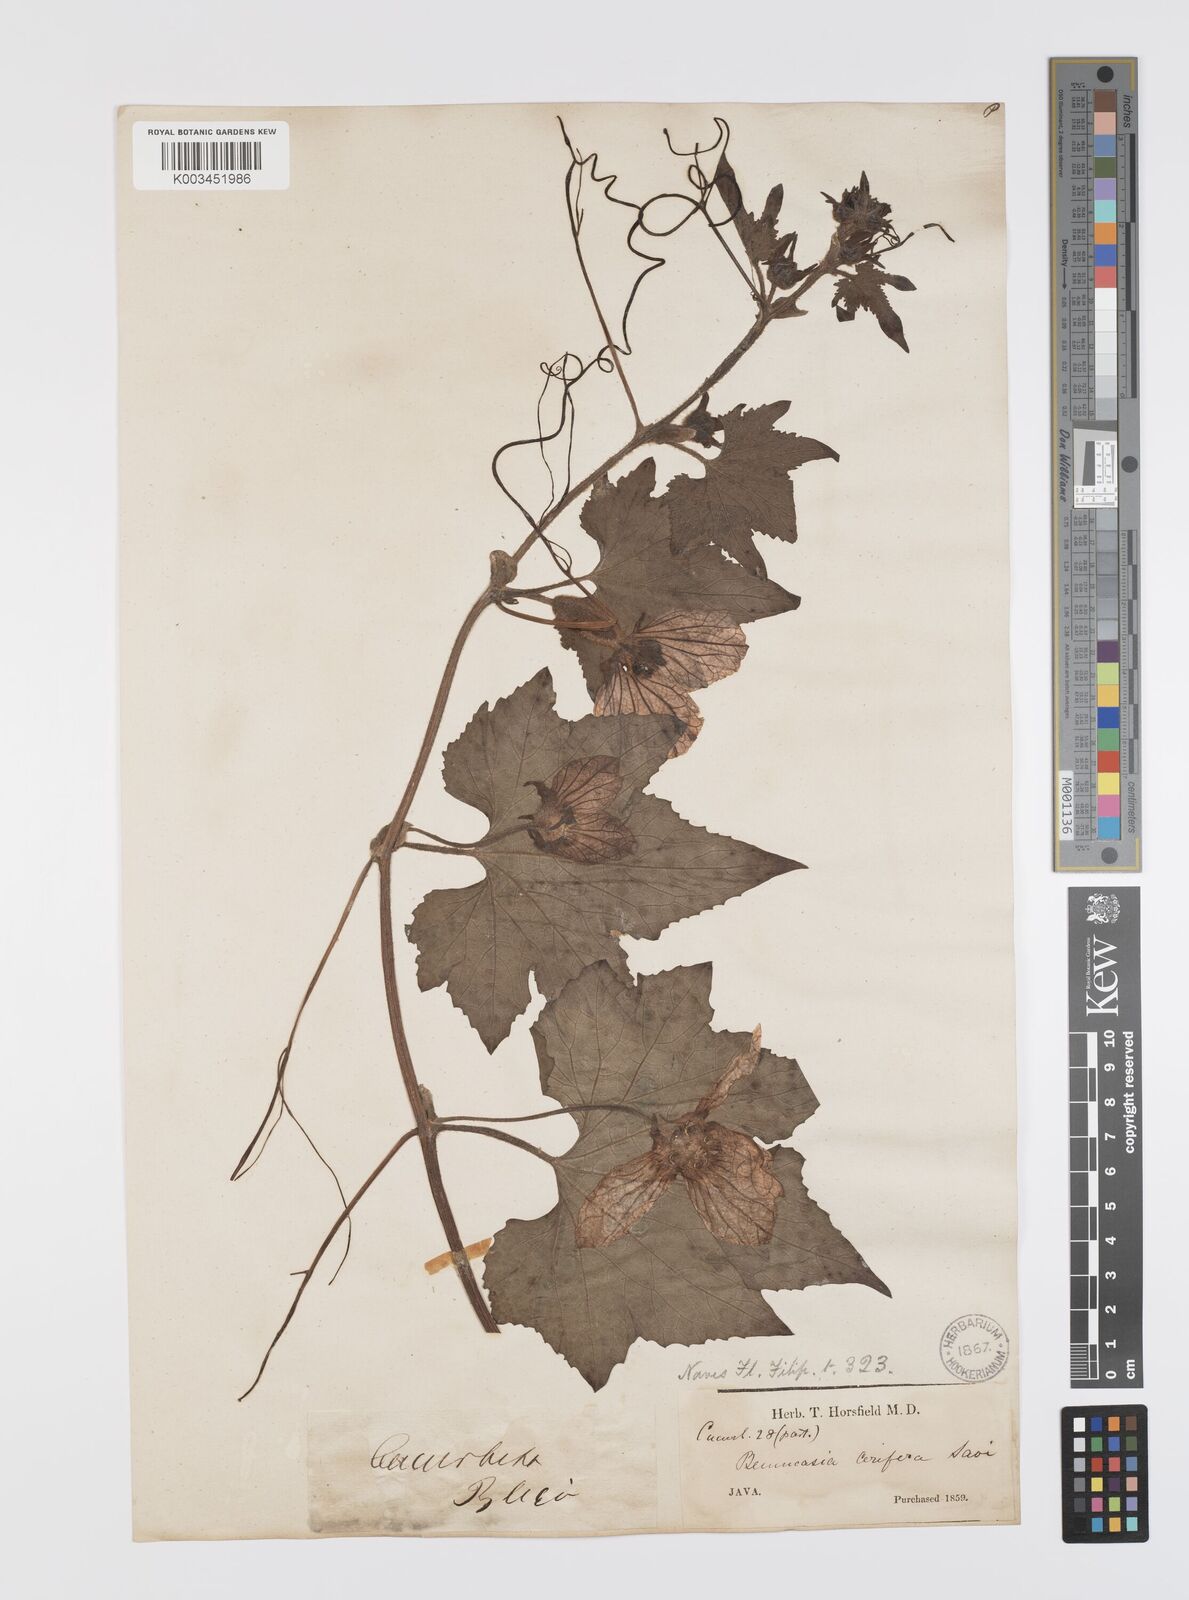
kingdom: Plantae
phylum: Tracheophyta
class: Magnoliopsida
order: Cucurbitales
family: Cucurbitaceae
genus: Benincasa
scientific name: Benincasa hispida
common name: Chinese-watermelon
